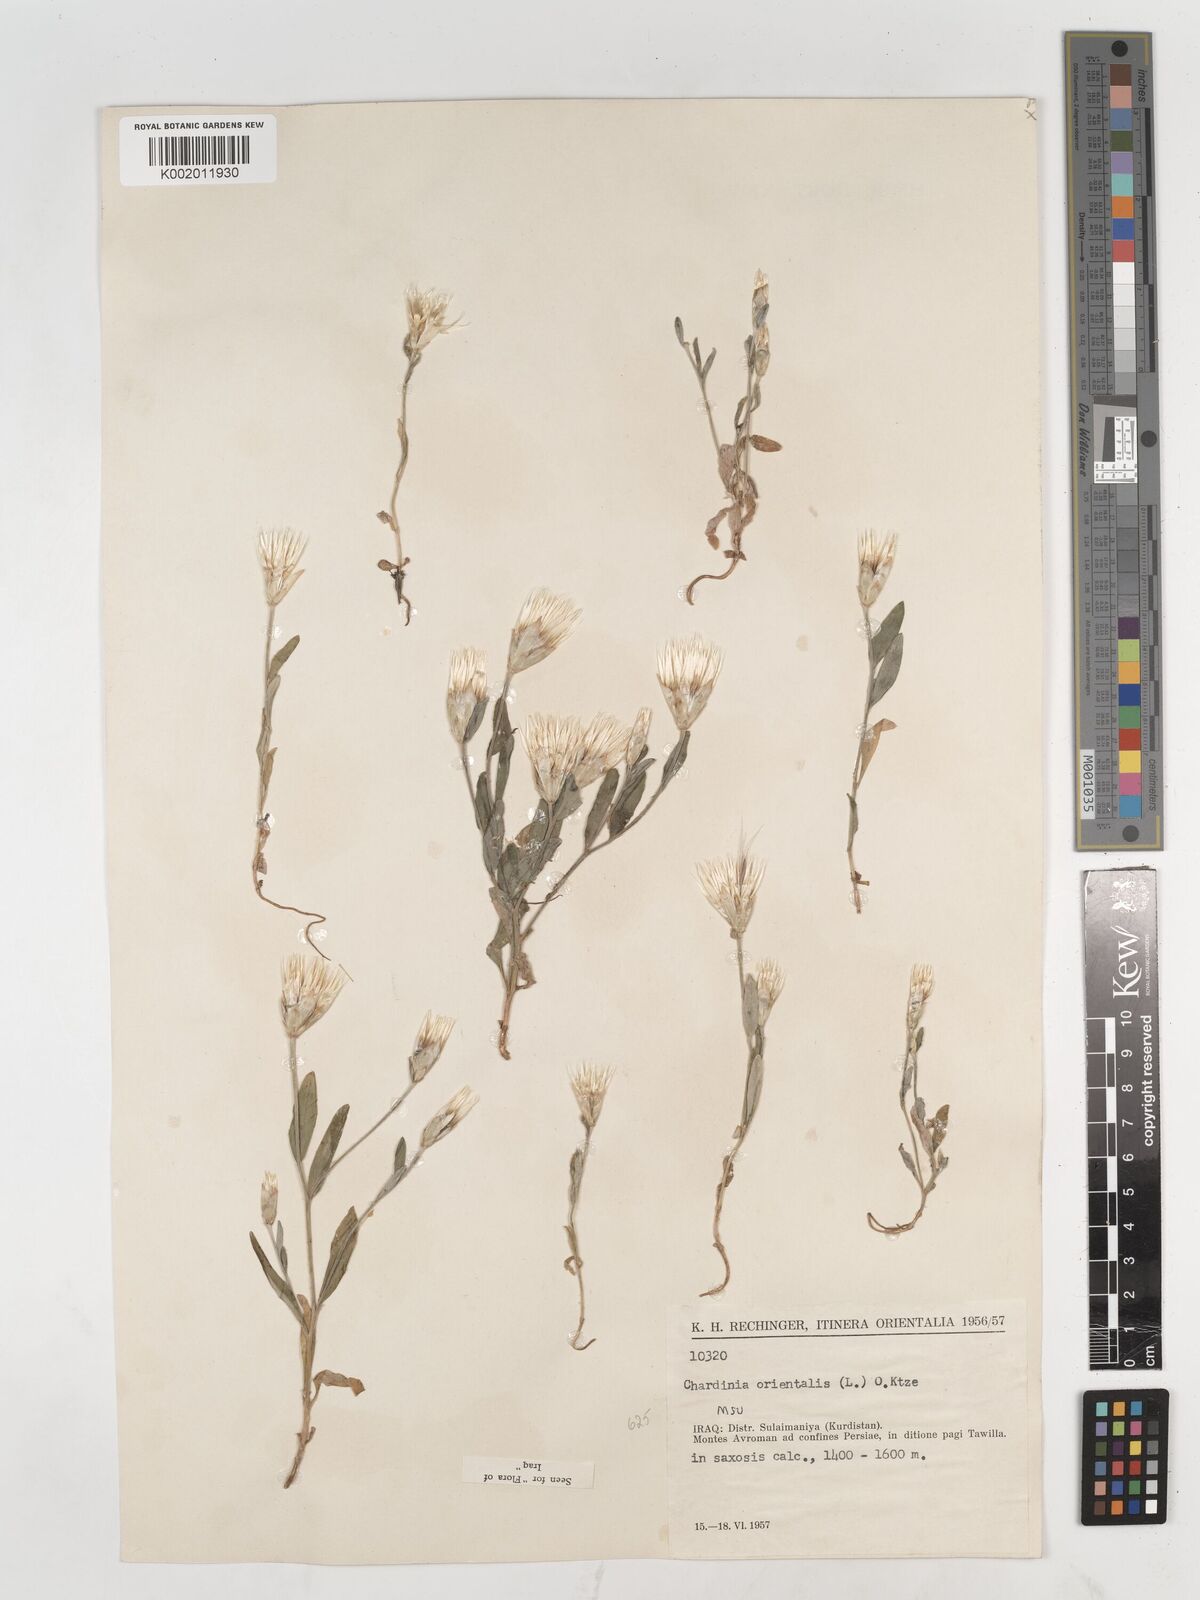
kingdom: Plantae
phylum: Tracheophyta
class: Magnoliopsida
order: Asterales
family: Asteraceae
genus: Chardinia
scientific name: Chardinia orientalis
